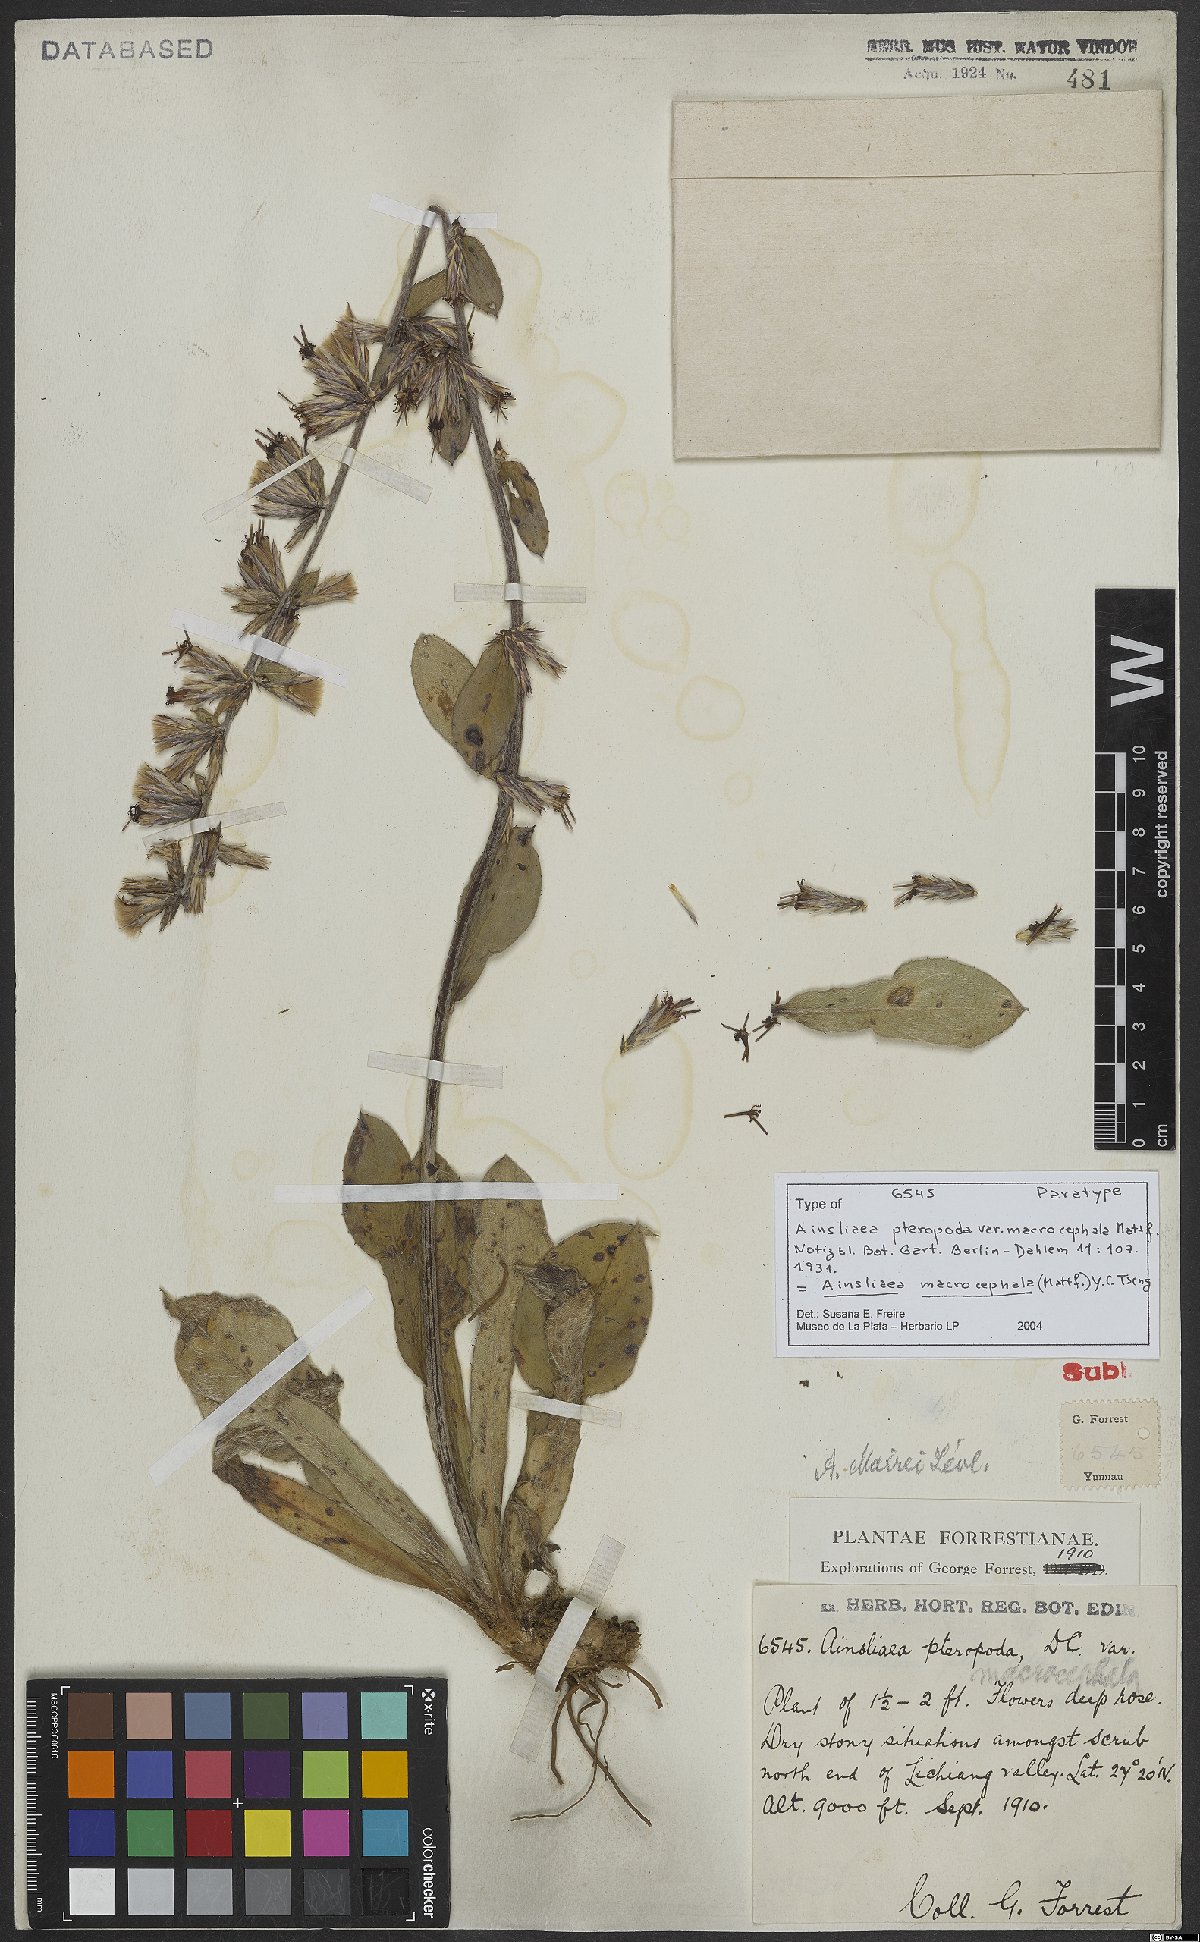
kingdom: Plantae
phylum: Tracheophyta
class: Magnoliopsida
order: Asterales
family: Asteraceae
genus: Ainsliaea
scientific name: Ainsliaea macrocephala
